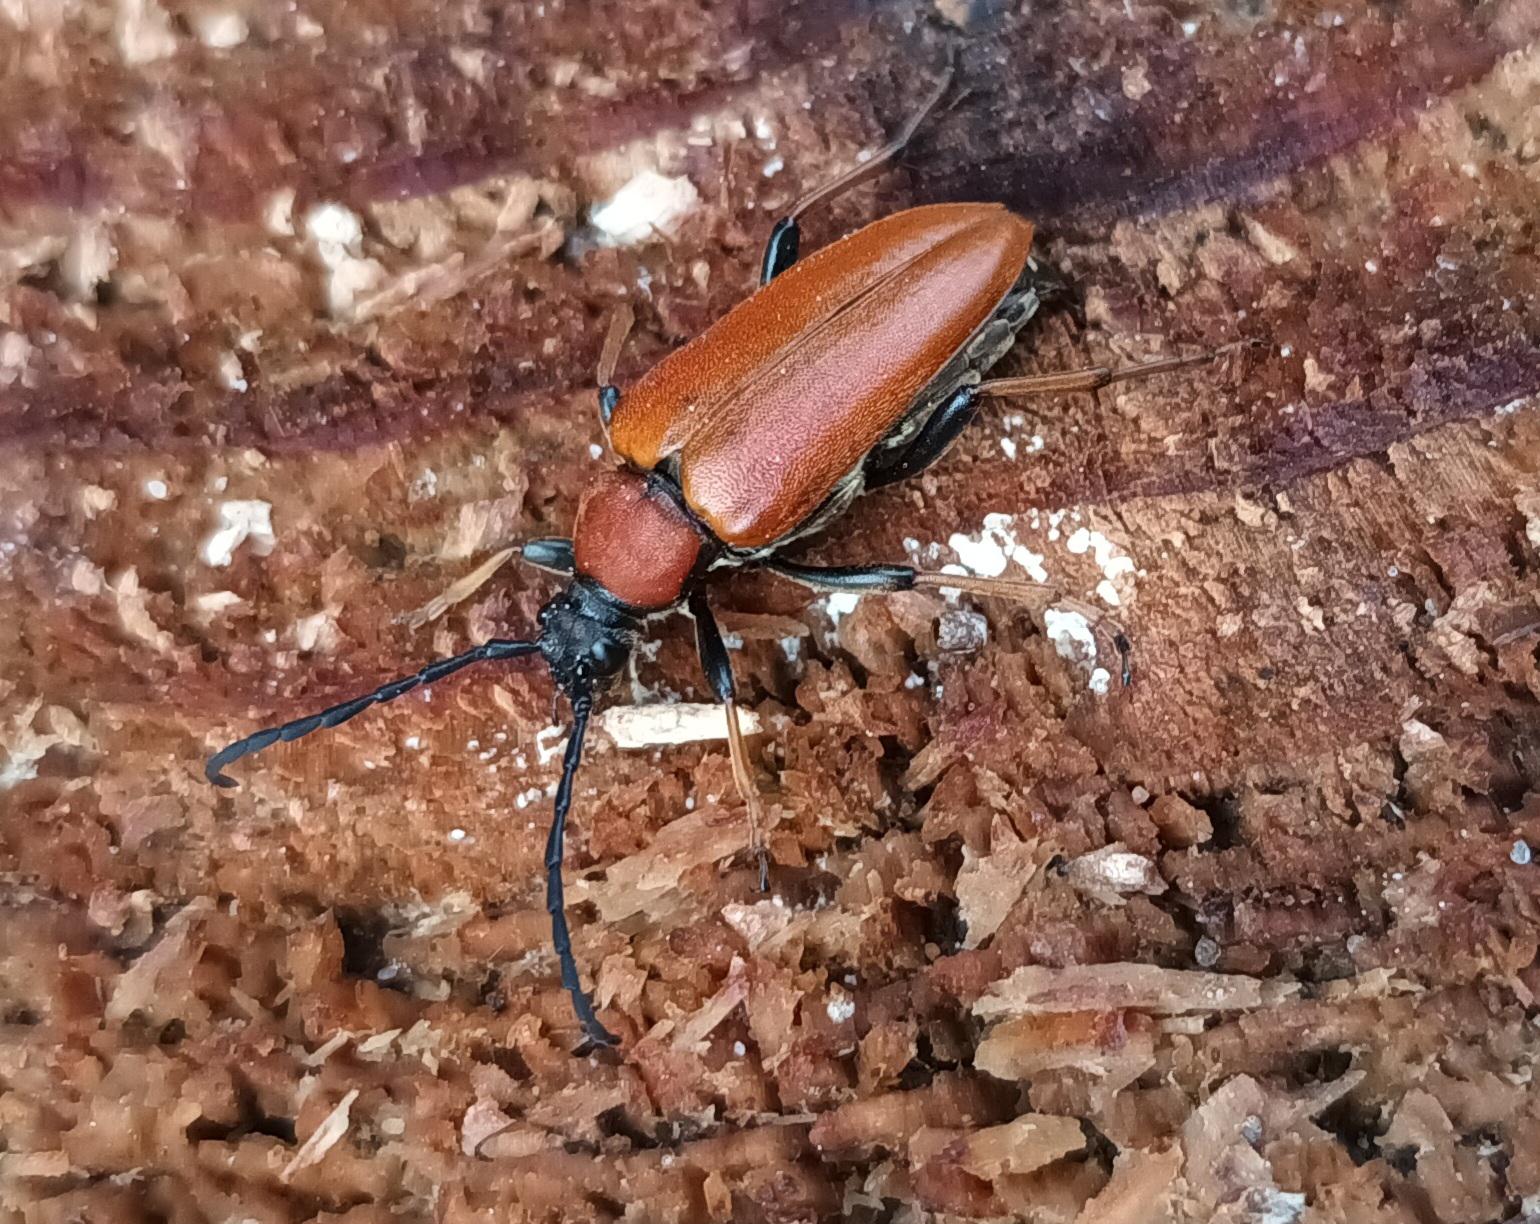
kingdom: Animalia
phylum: Arthropoda
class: Insecta
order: Coleoptera
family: Cerambycidae
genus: Stictoleptura
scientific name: Stictoleptura rubra
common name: Rød blomsterbuk
